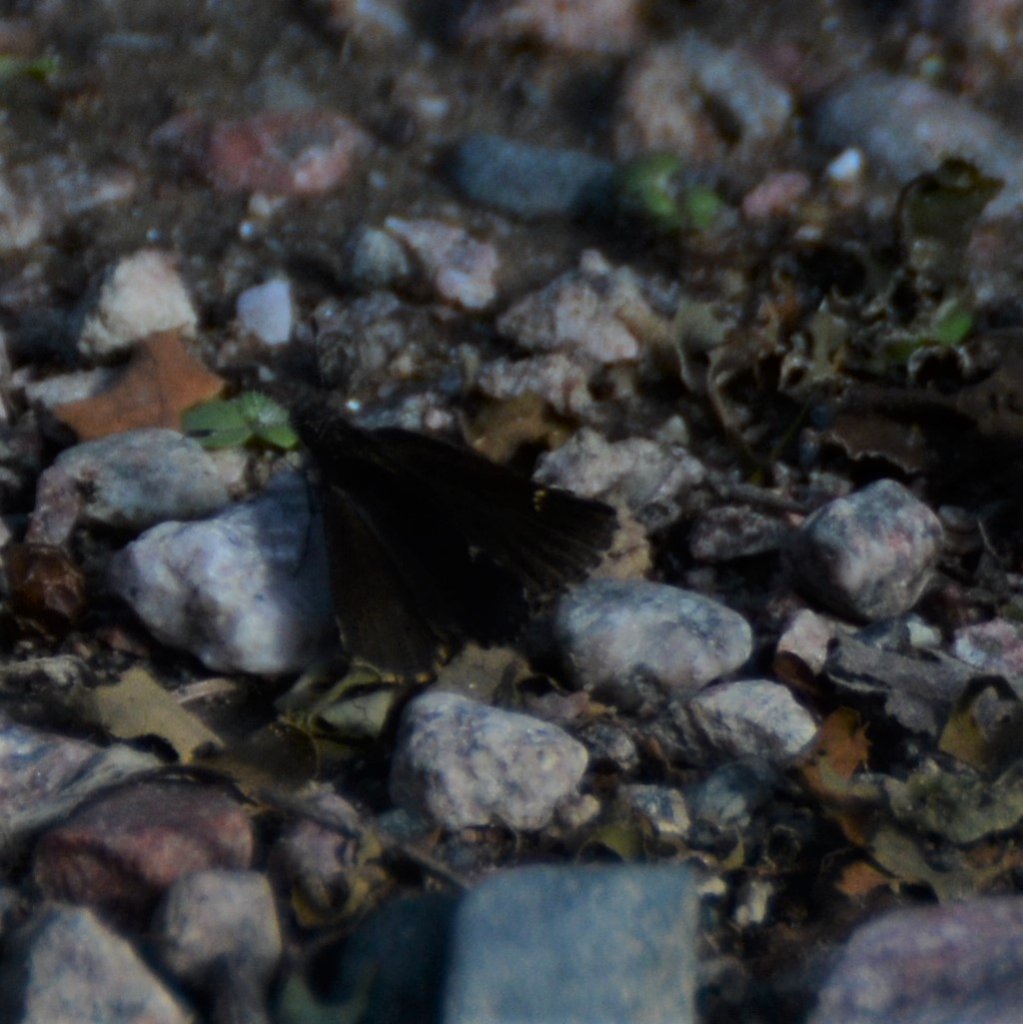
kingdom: Animalia
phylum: Arthropoda
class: Insecta
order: Lepidoptera
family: Hesperiidae
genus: Mastor
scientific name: Mastor vialis
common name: Common Roadside-Skipper
